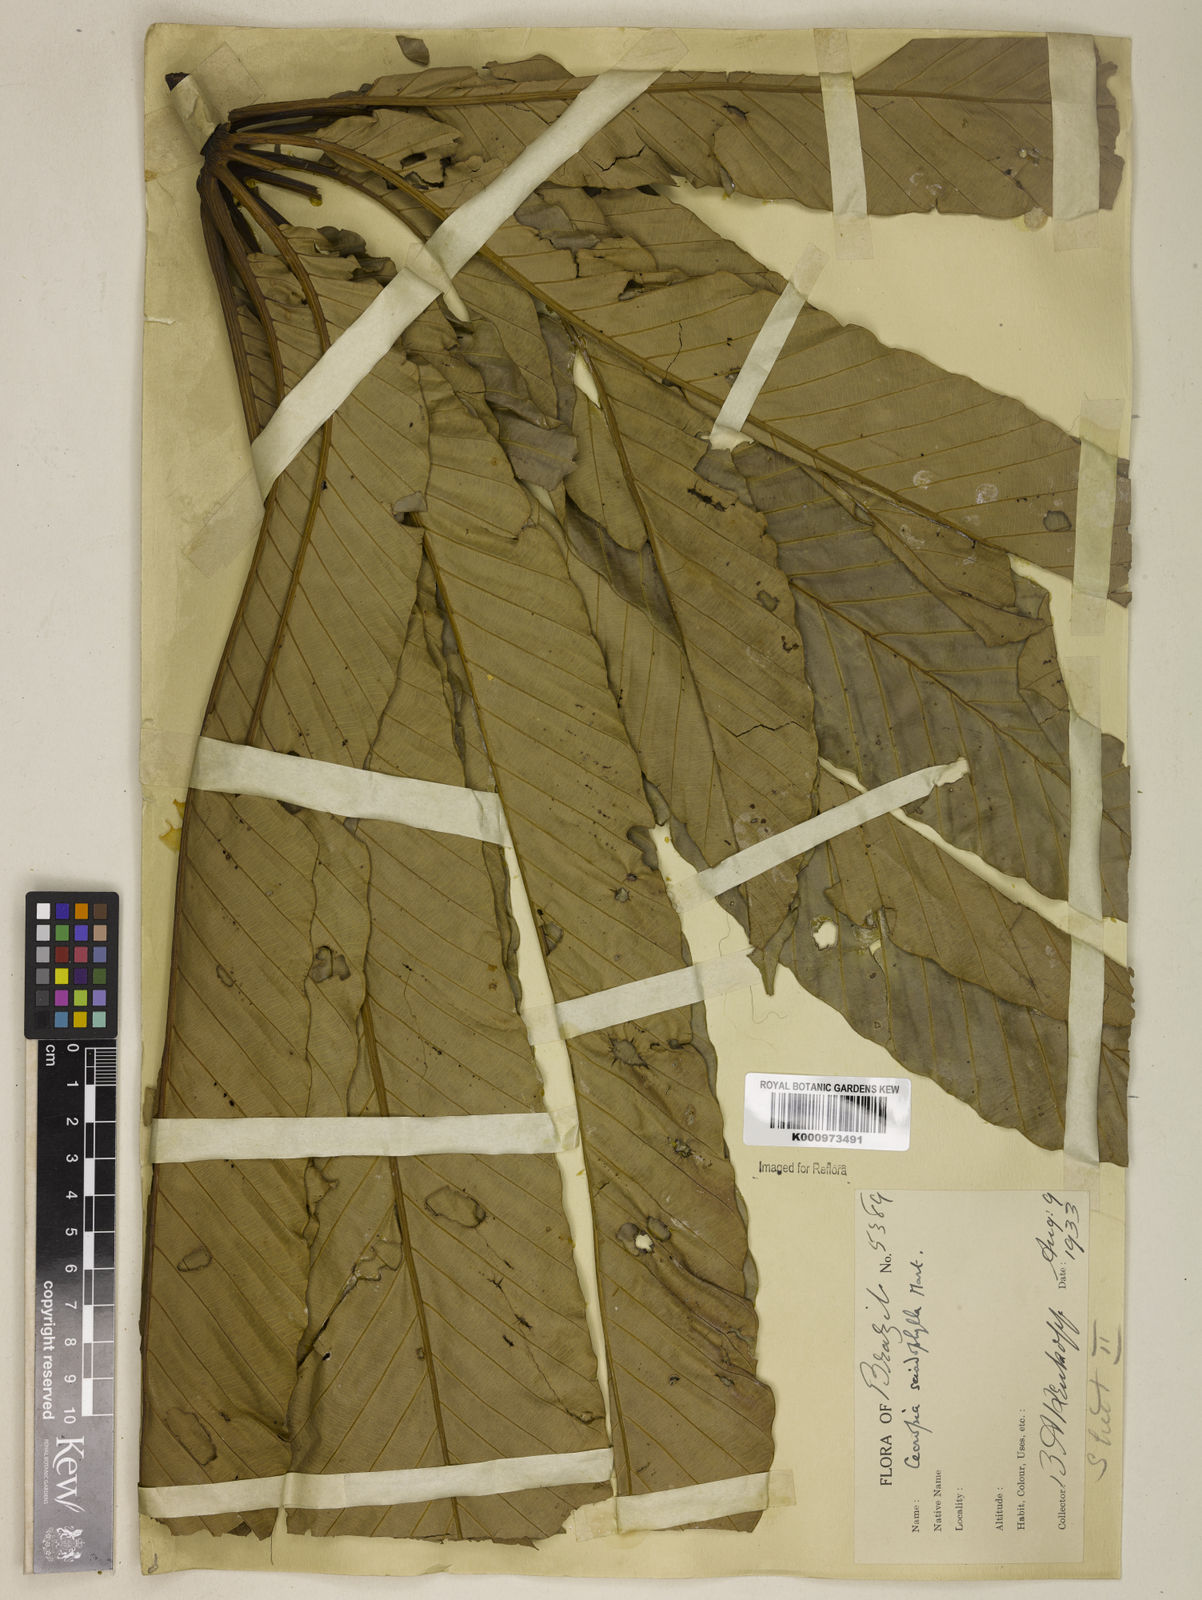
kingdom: Plantae
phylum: Tracheophyta
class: Magnoliopsida
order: Rosales
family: Urticaceae
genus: Cecropia
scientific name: Cecropia sciadophylla
